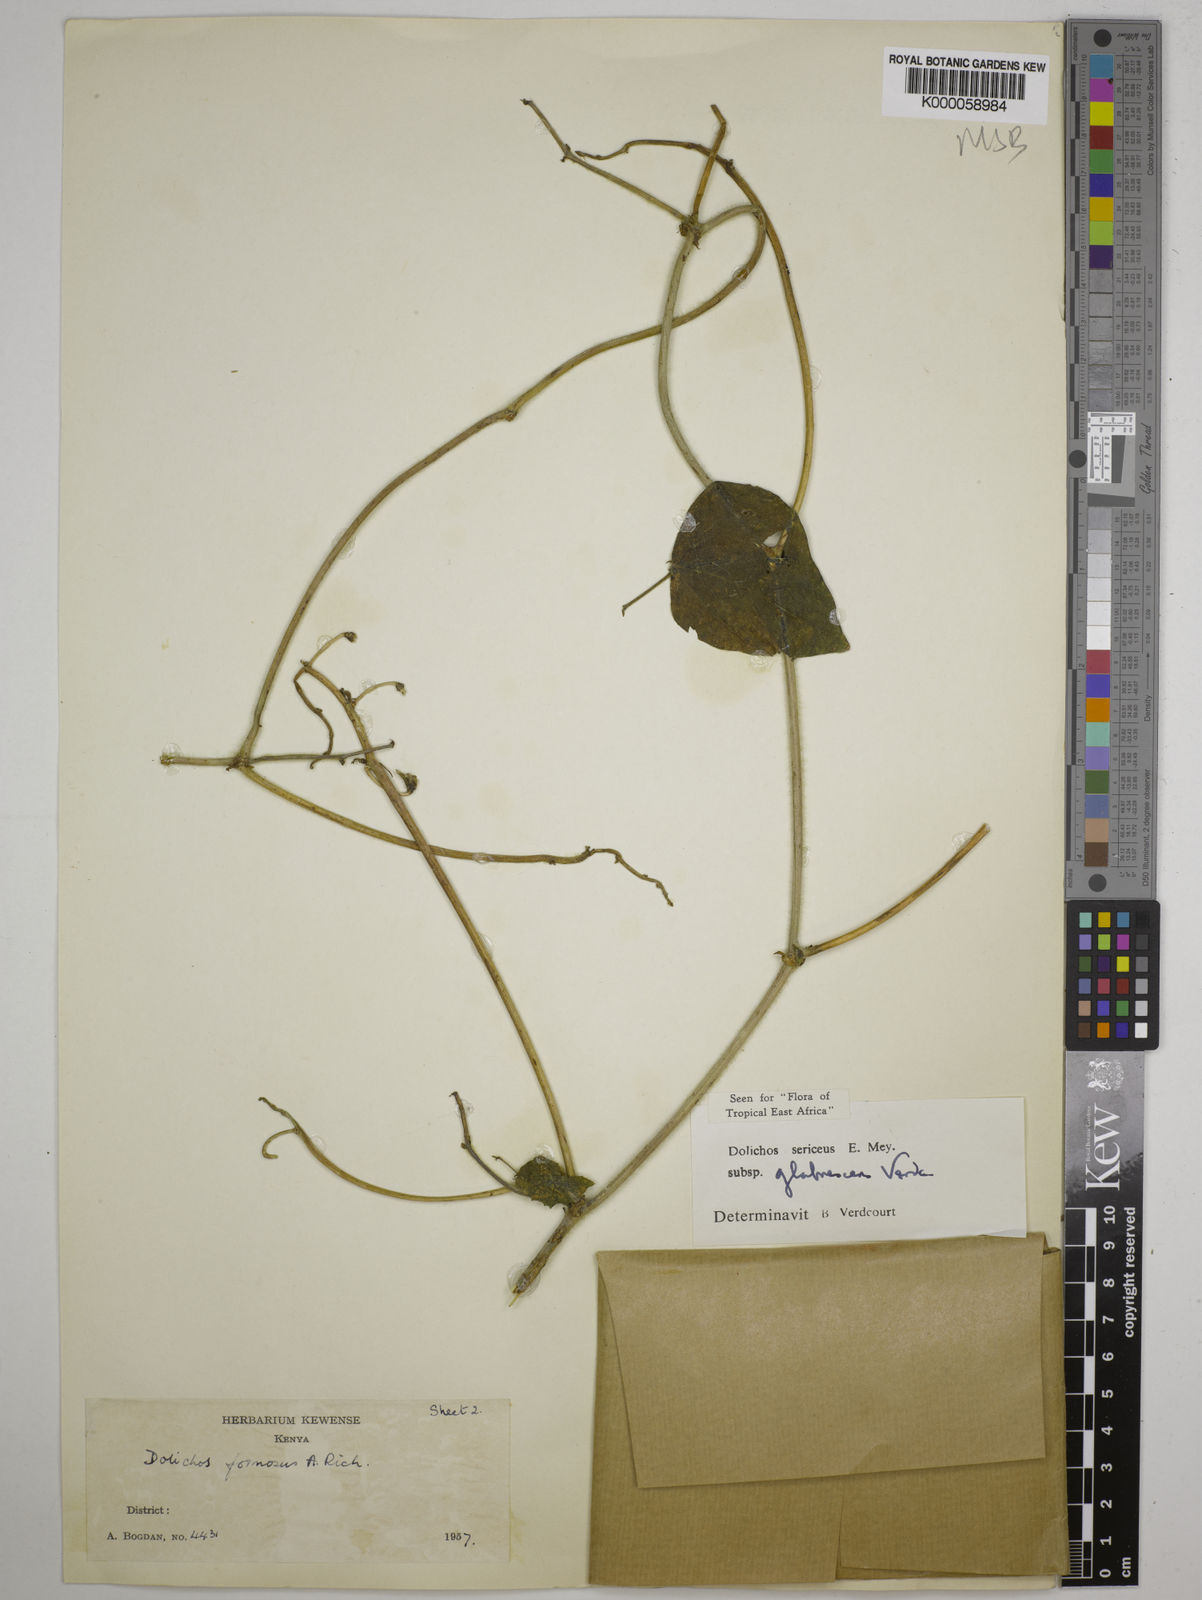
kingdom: Plantae
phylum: Tracheophyta
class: Magnoliopsida
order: Fabales
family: Fabaceae
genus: Dolichos
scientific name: Dolichos sericeus
